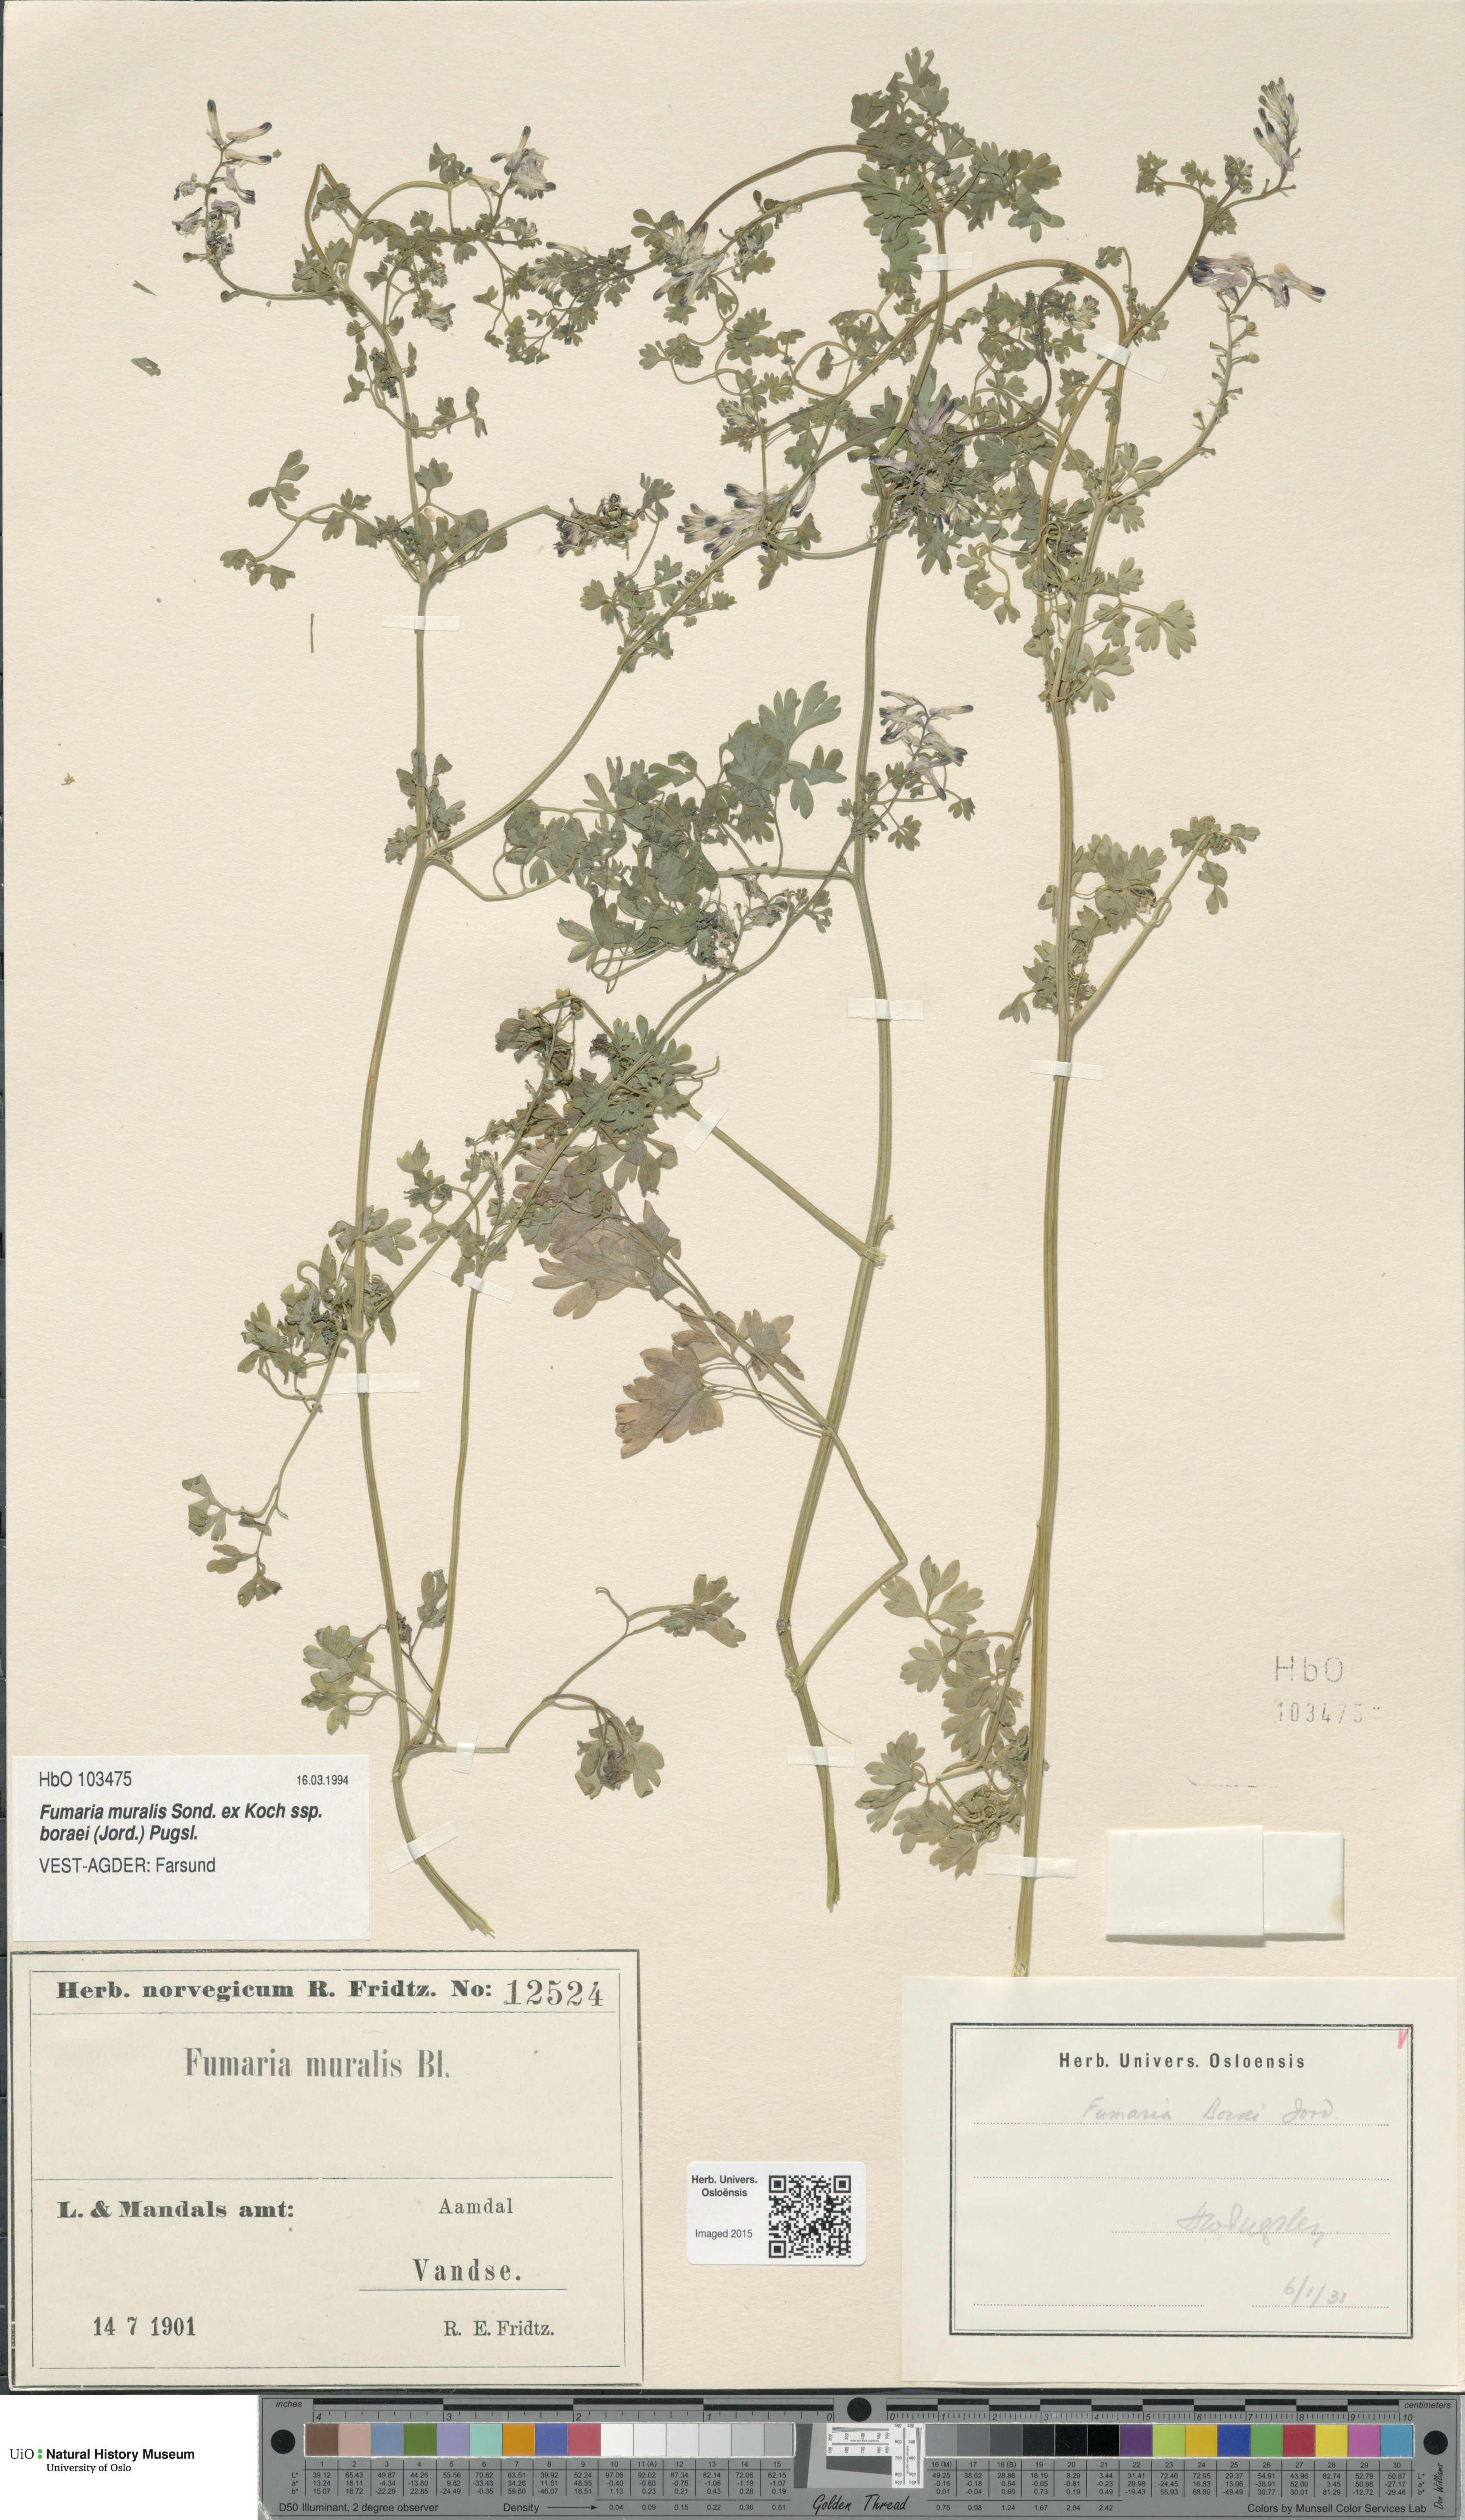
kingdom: Plantae
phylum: Tracheophyta
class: Magnoliopsida
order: Ranunculales
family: Papaveraceae
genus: Fumaria
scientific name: Fumaria muralis
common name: Common ramping-fumitory
